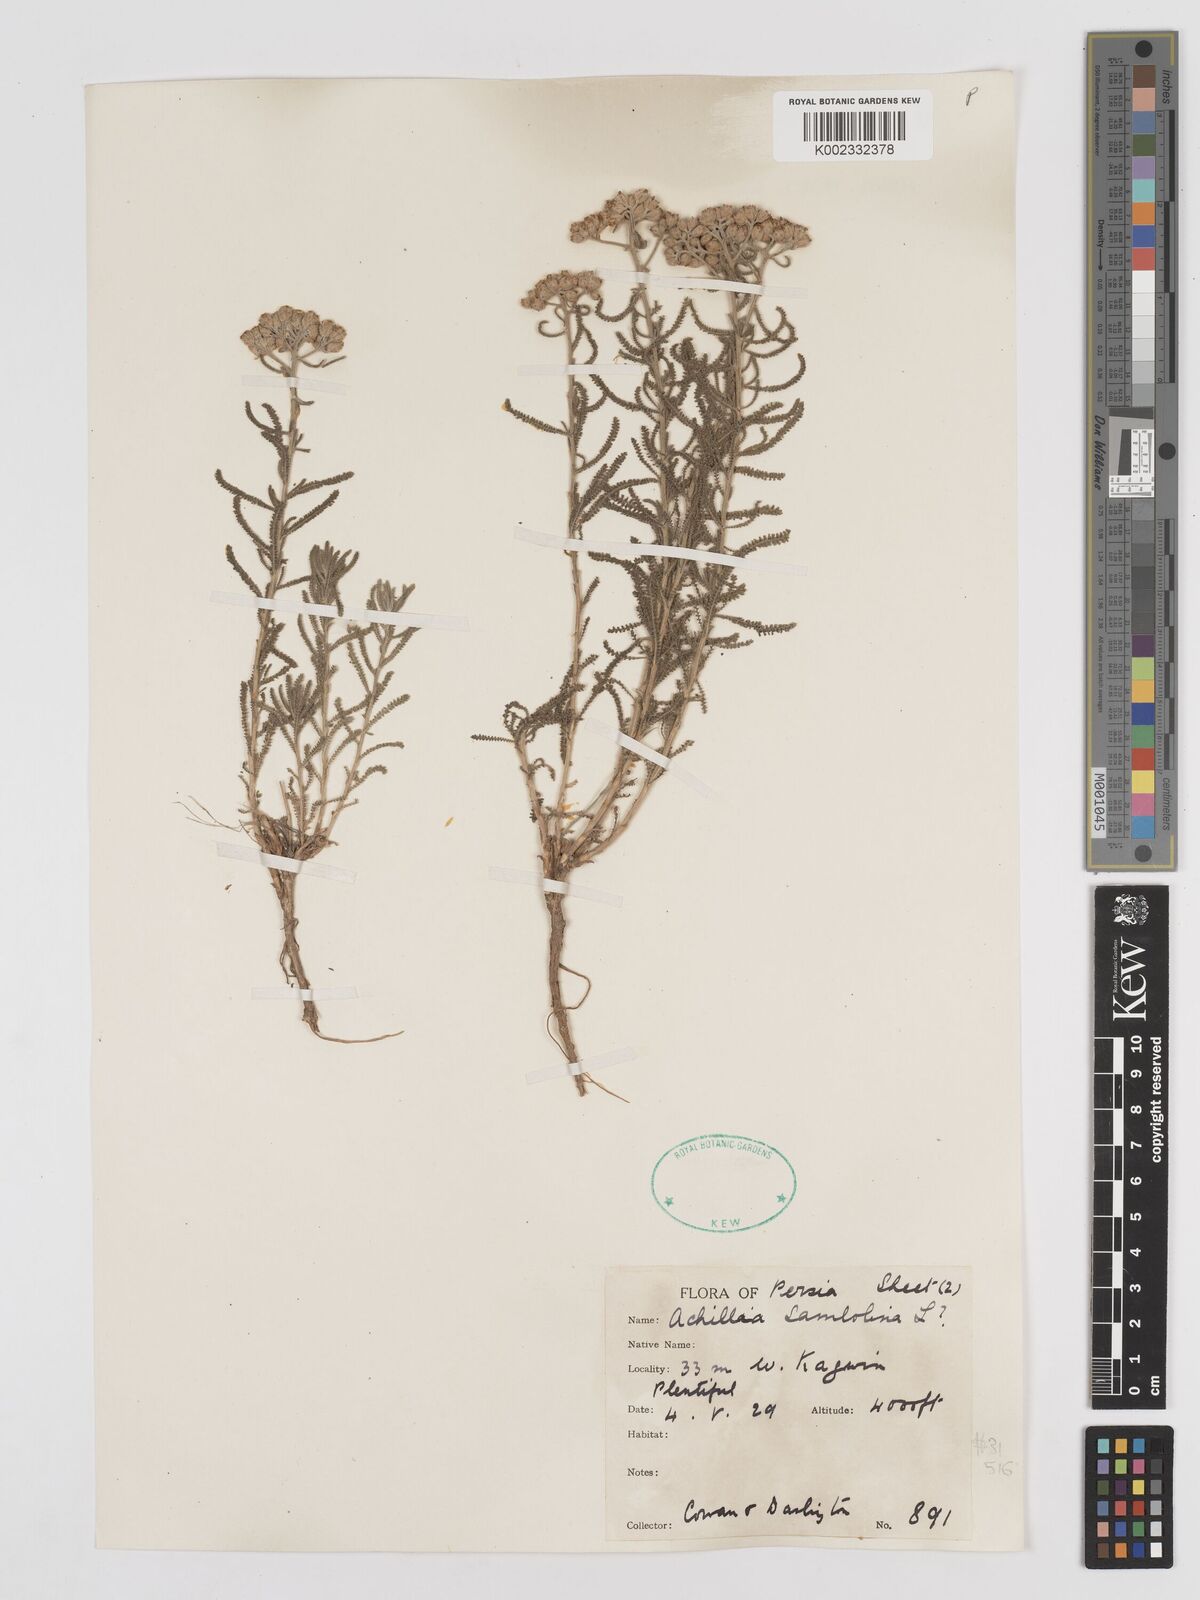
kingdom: Plantae
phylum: Tracheophyta
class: Magnoliopsida
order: Asterales
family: Asteraceae
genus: Achillea
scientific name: Achillea cretica
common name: Chamomile-leaved lavender-cotton
